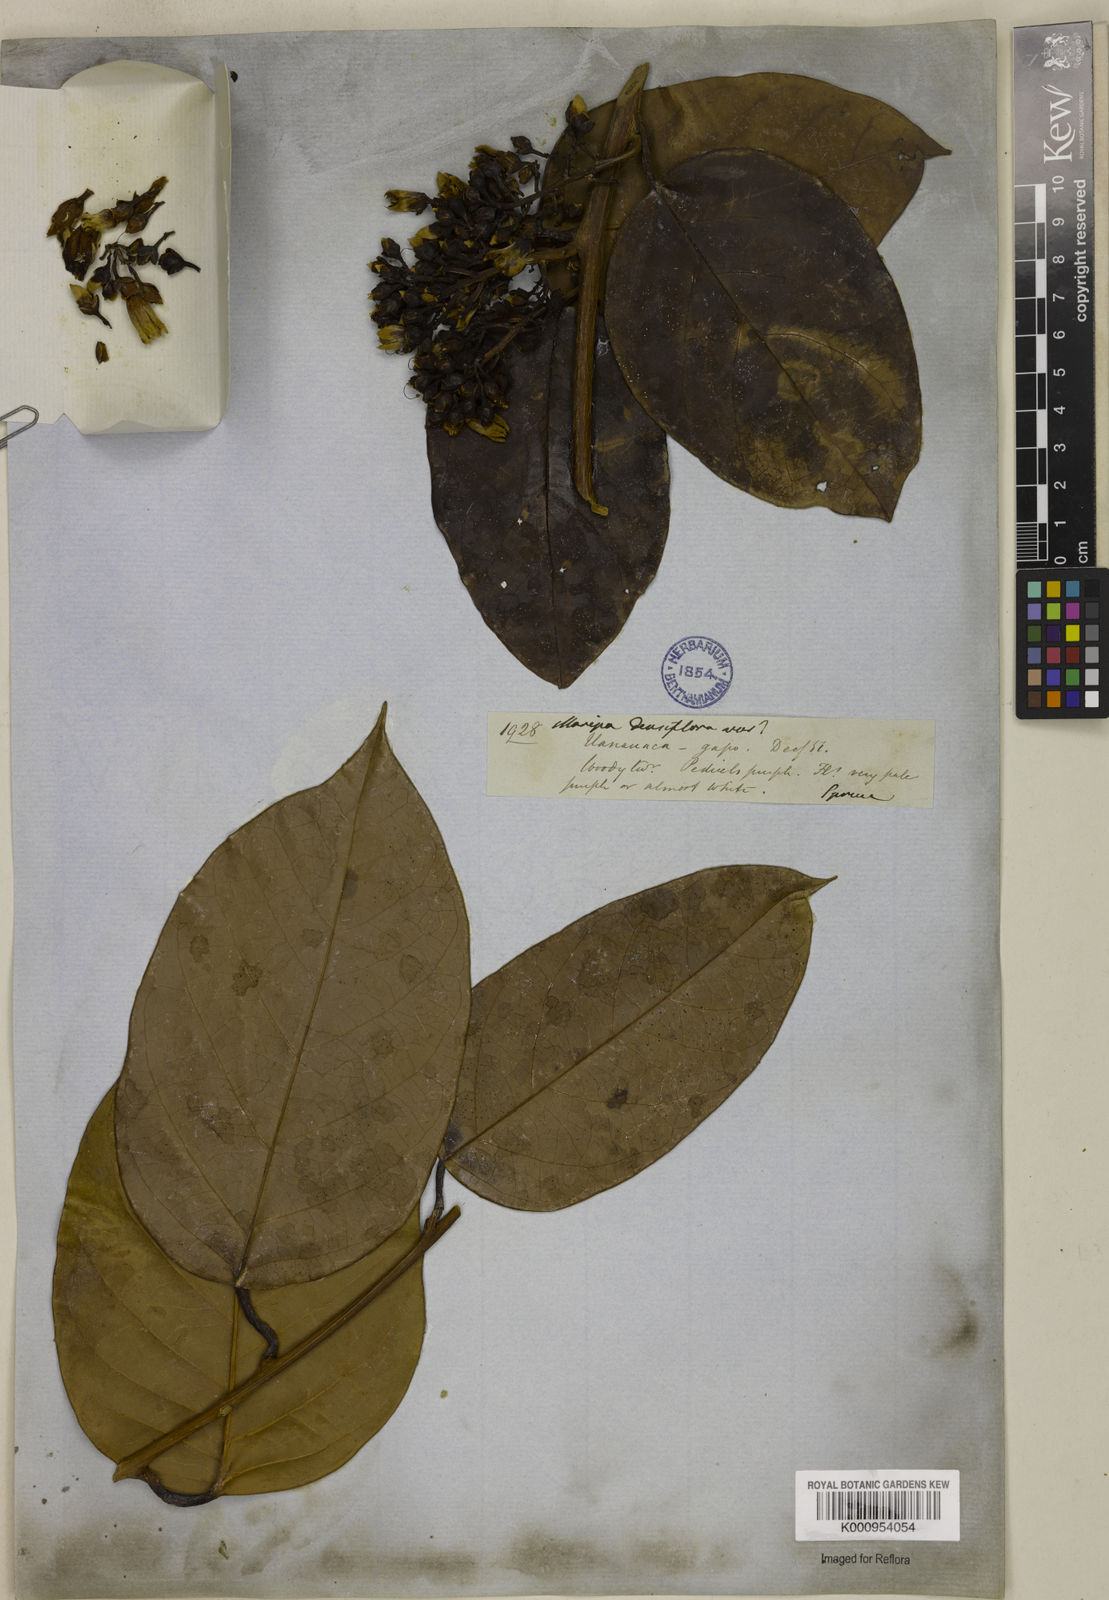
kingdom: Plantae
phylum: Tracheophyta
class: Magnoliopsida
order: Solanales
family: Convolvulaceae
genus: Maripa
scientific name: Maripa densiflora
